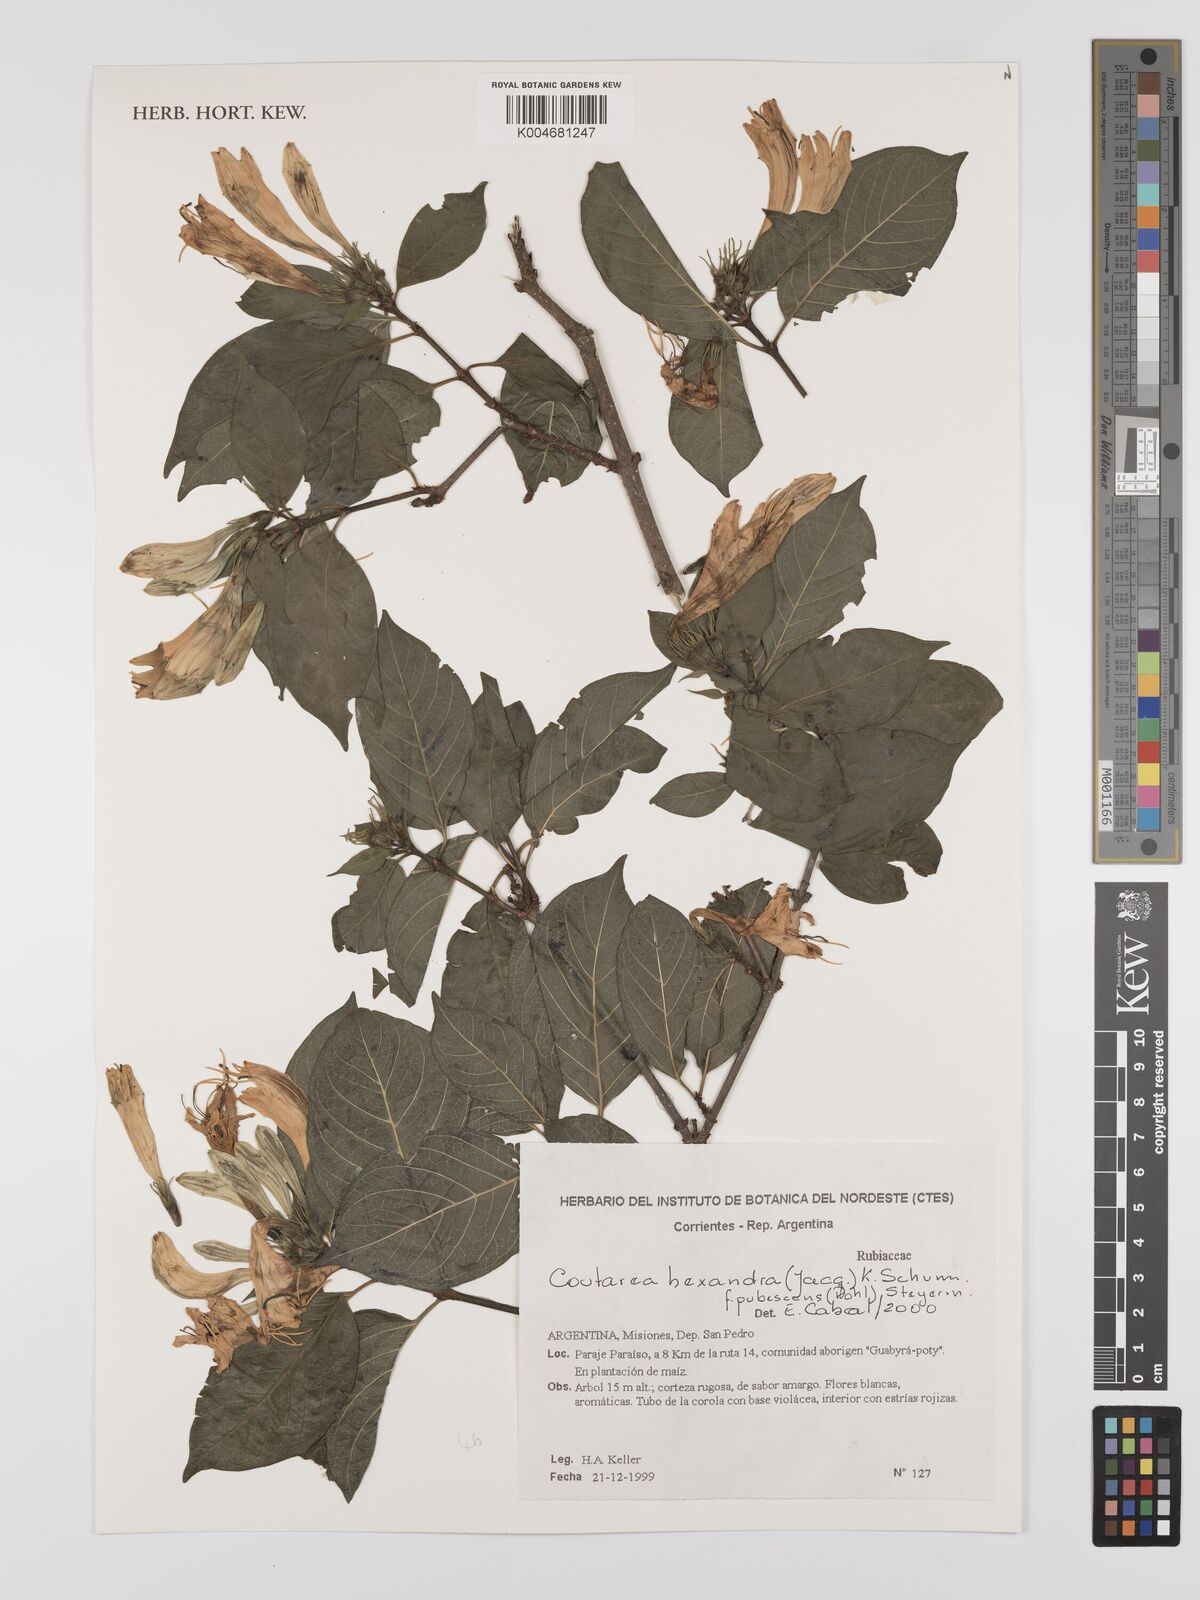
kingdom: Plantae
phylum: Tracheophyta
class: Magnoliopsida
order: Gentianales
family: Rubiaceae
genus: Coutarea
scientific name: Coutarea hexandra
